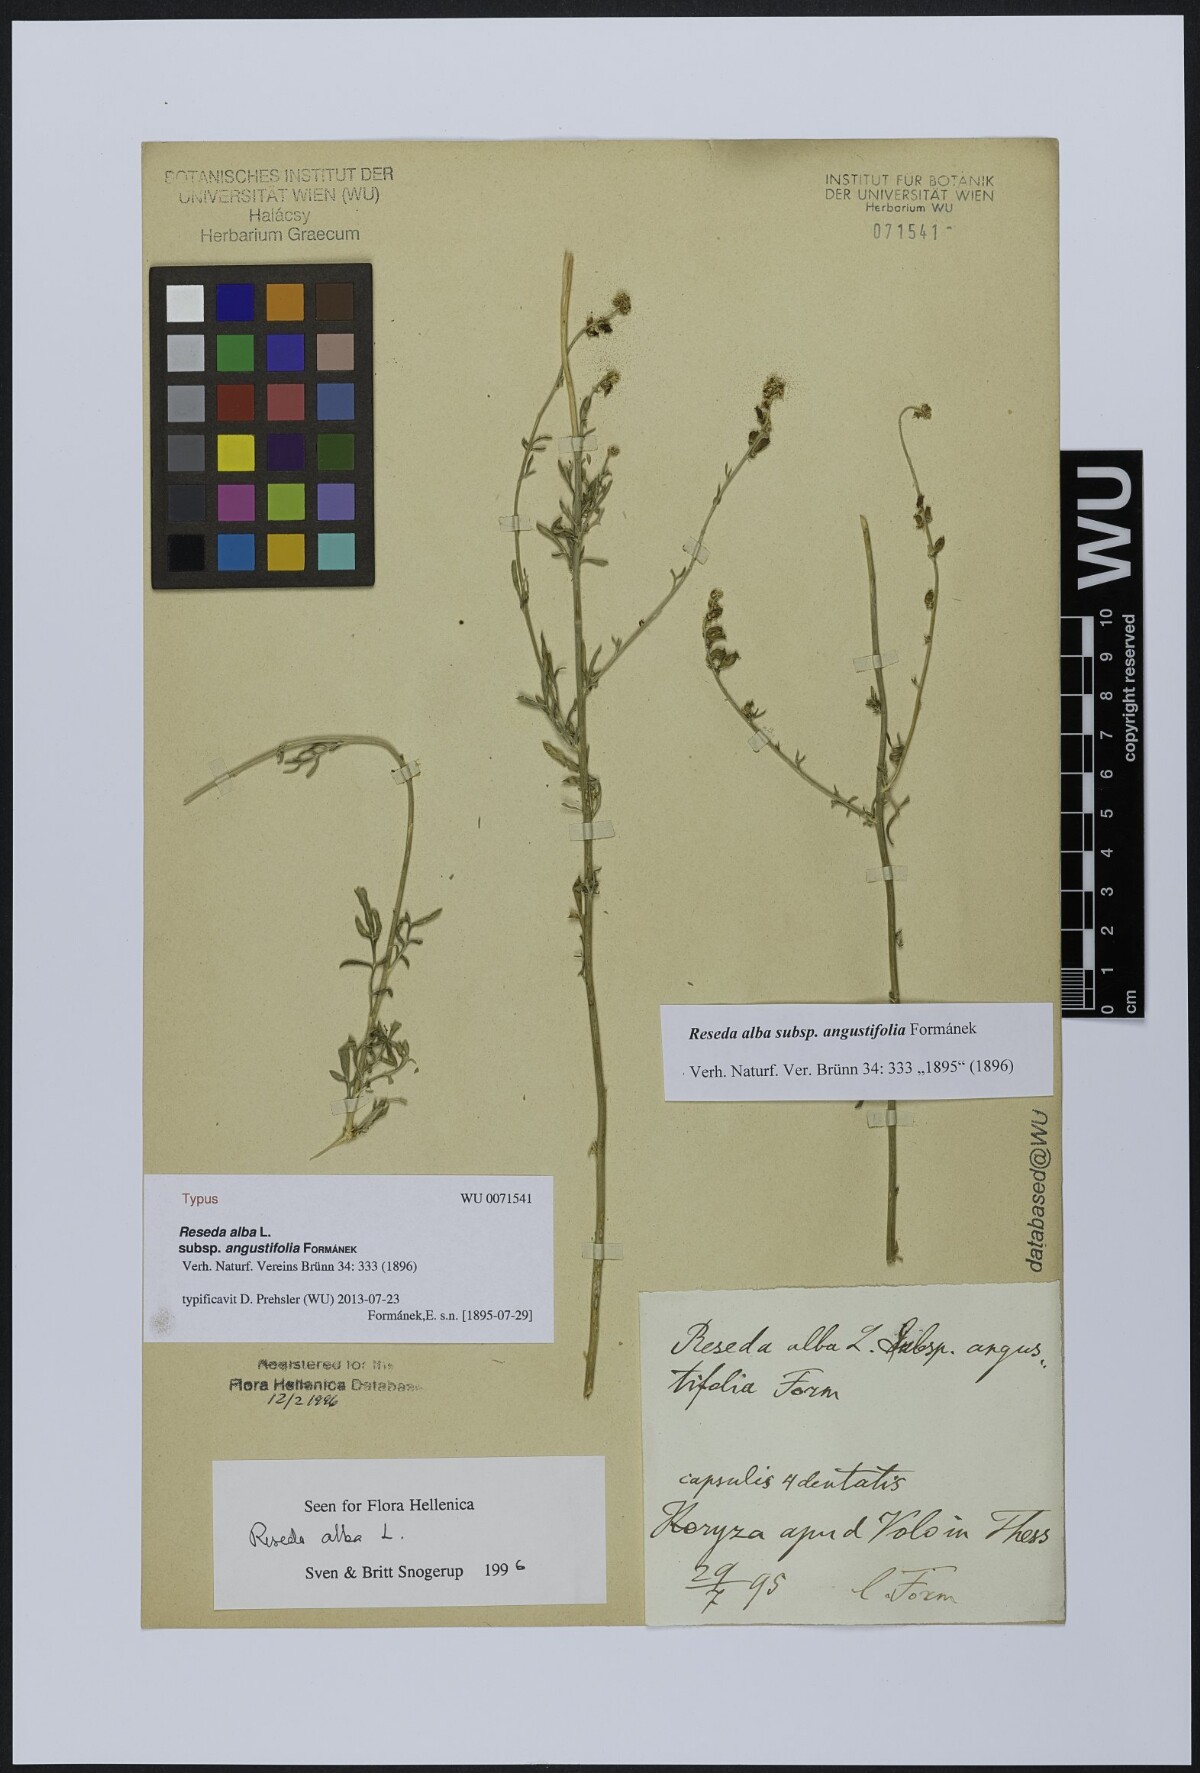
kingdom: Plantae
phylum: Tracheophyta
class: Magnoliopsida
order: Brassicales
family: Resedaceae
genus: Reseda
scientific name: Reseda alba
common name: White mignonette
